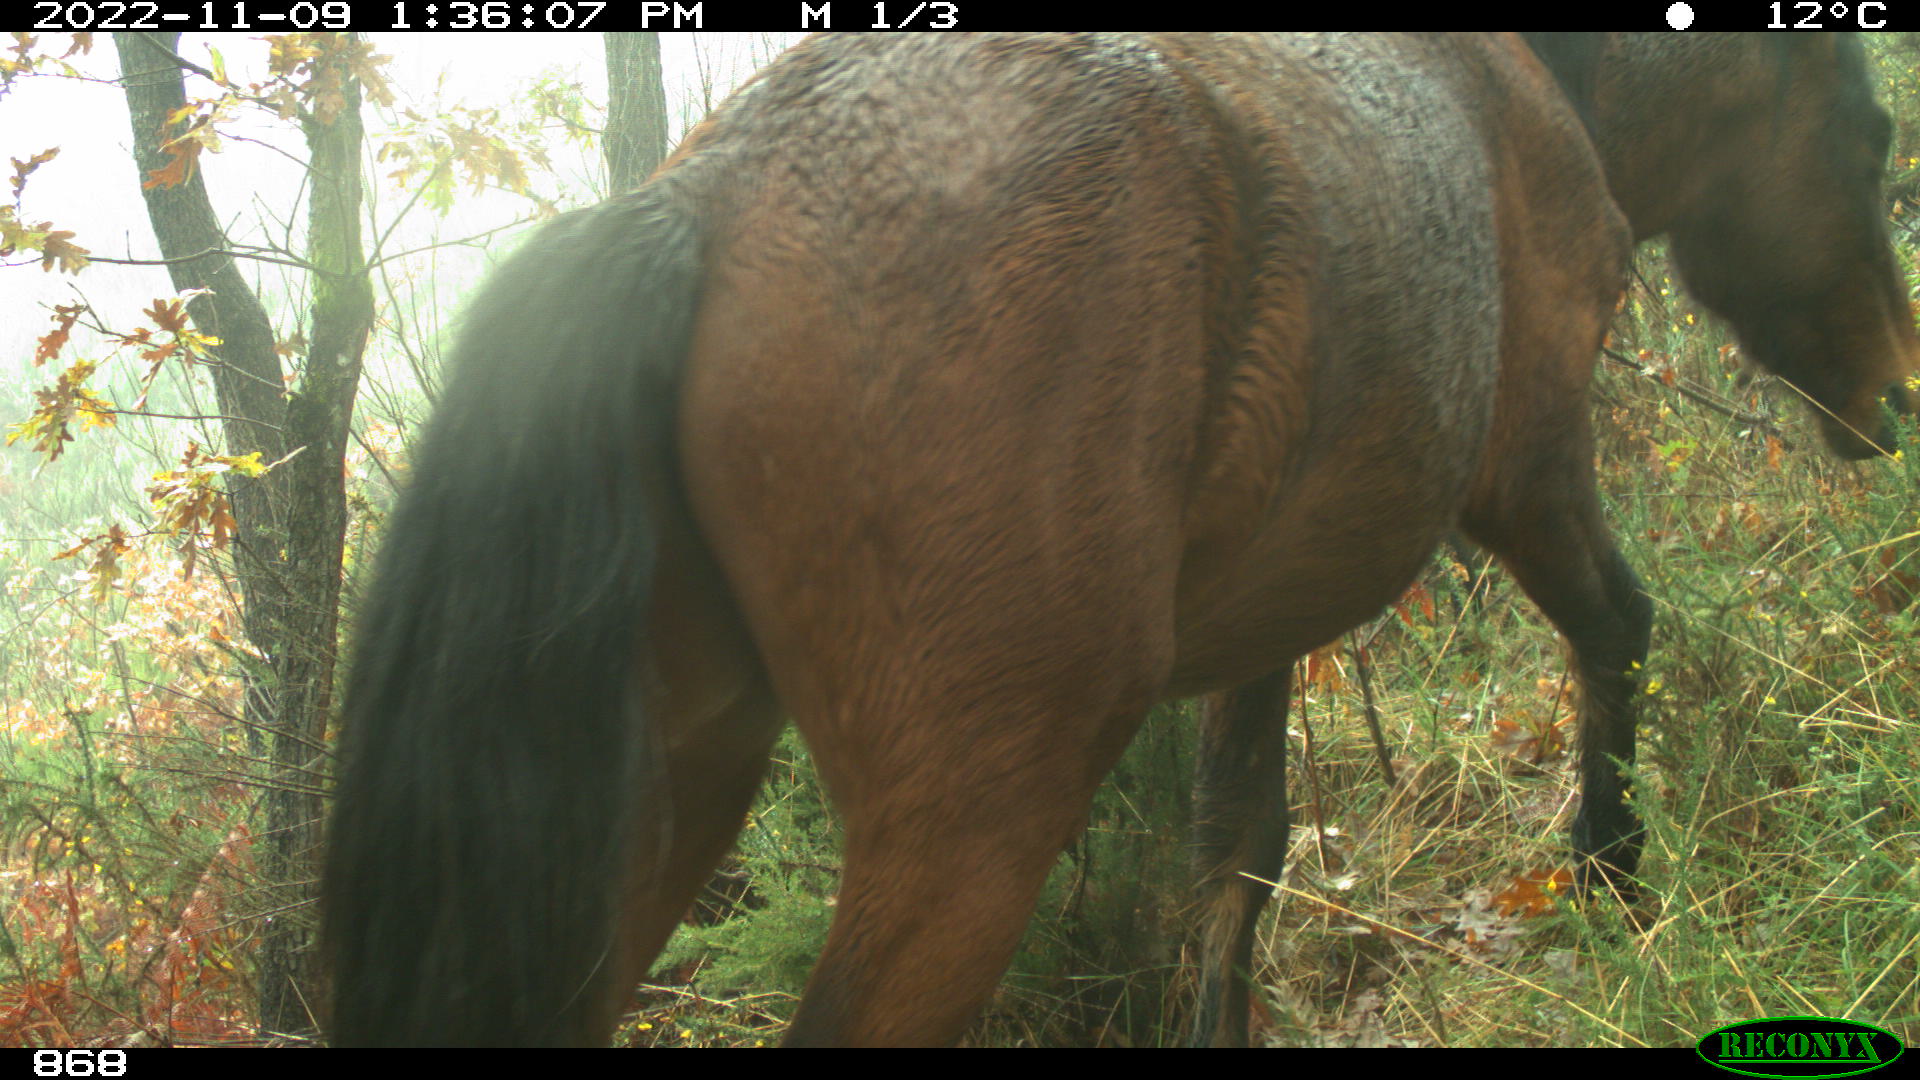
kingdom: Animalia
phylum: Chordata
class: Mammalia
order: Perissodactyla
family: Equidae
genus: Equus
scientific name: Equus caballus
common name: Horse
